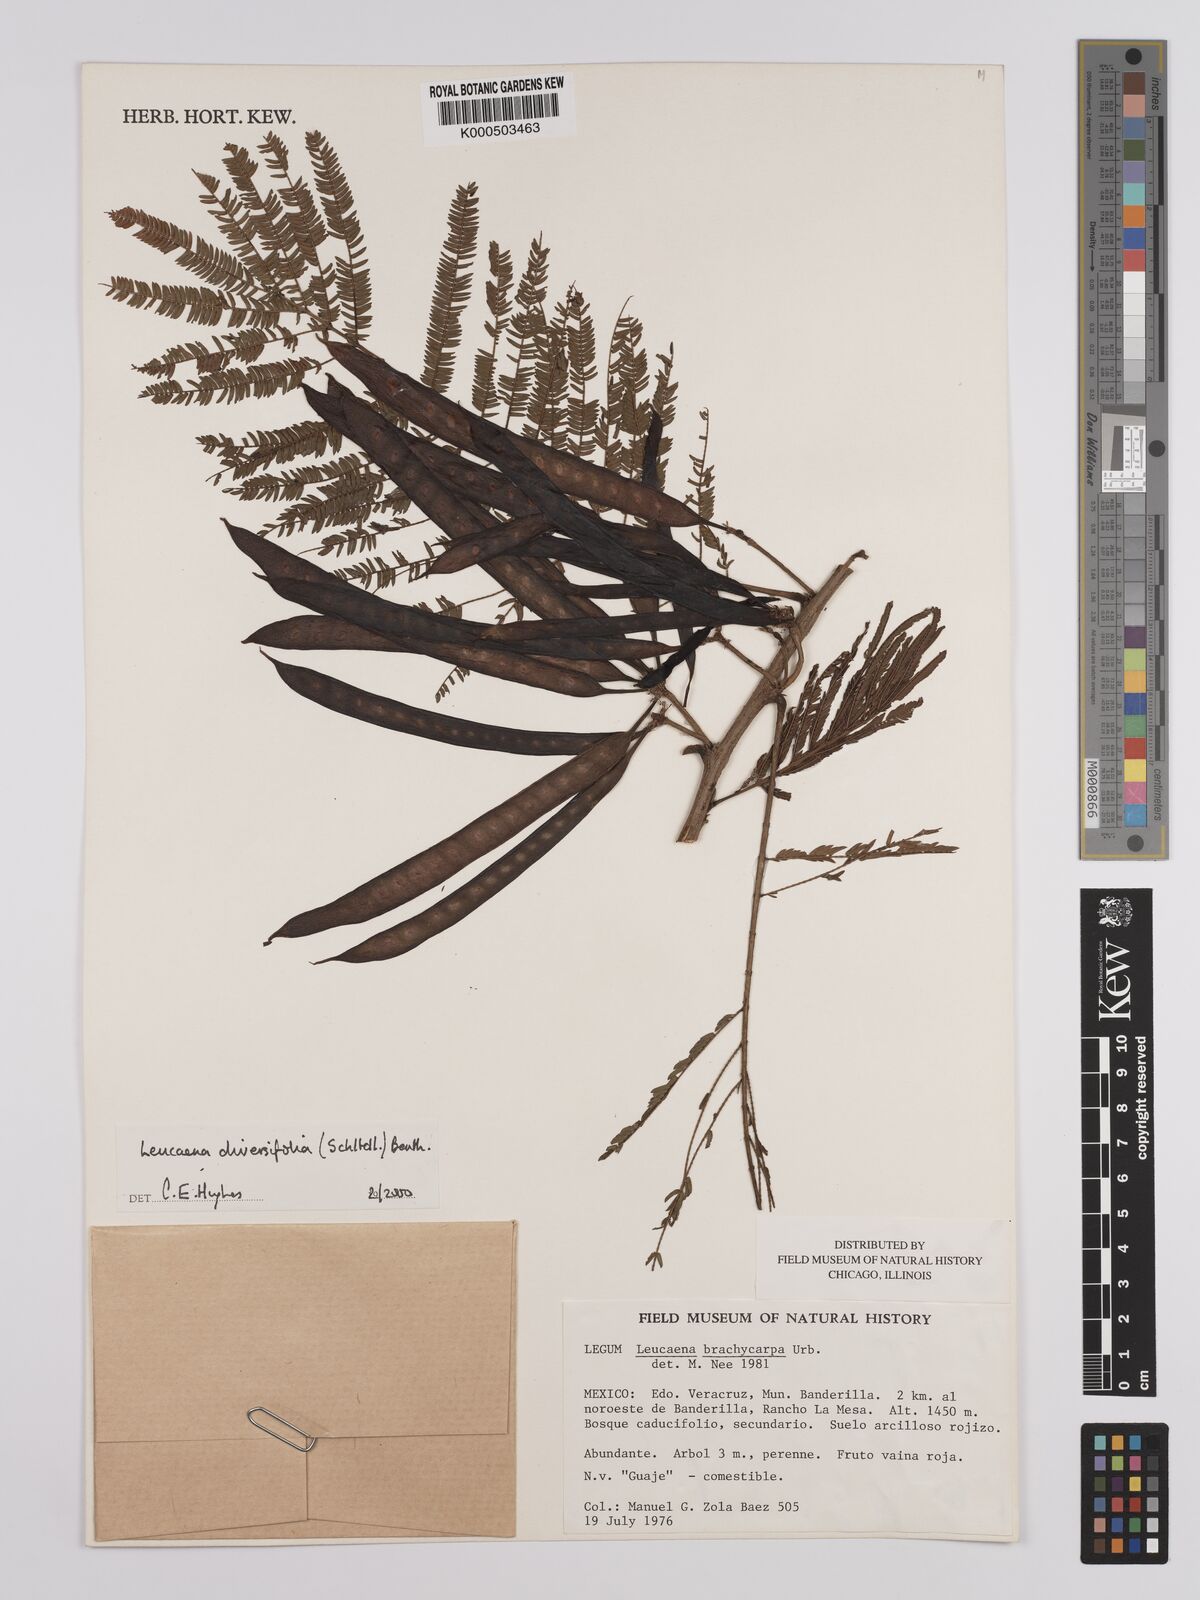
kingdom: Plantae
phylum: Tracheophyta
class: Magnoliopsida
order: Fabales
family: Fabaceae
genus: Leucaena
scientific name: Leucaena diversifolia
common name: Red leucaena
